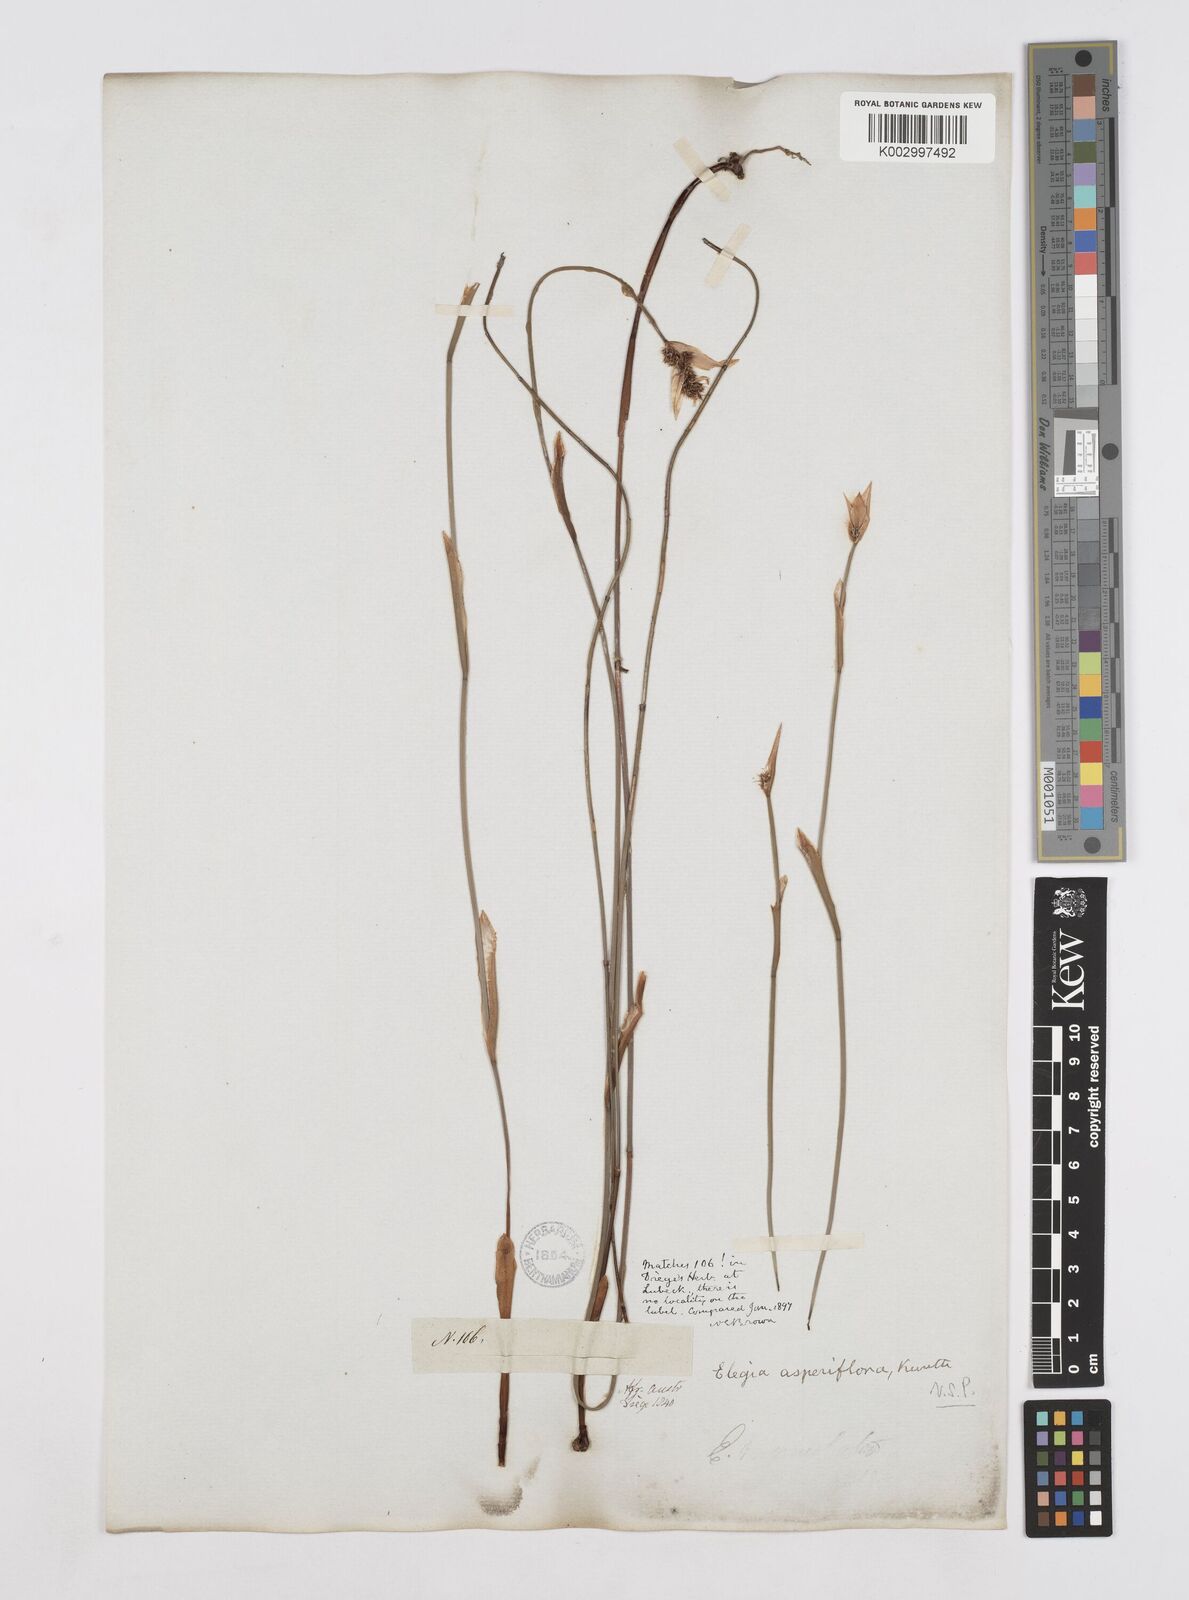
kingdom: Plantae
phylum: Tracheophyta
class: Liliopsida
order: Poales
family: Restionaceae
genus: Elegia
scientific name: Elegia asperiflora
